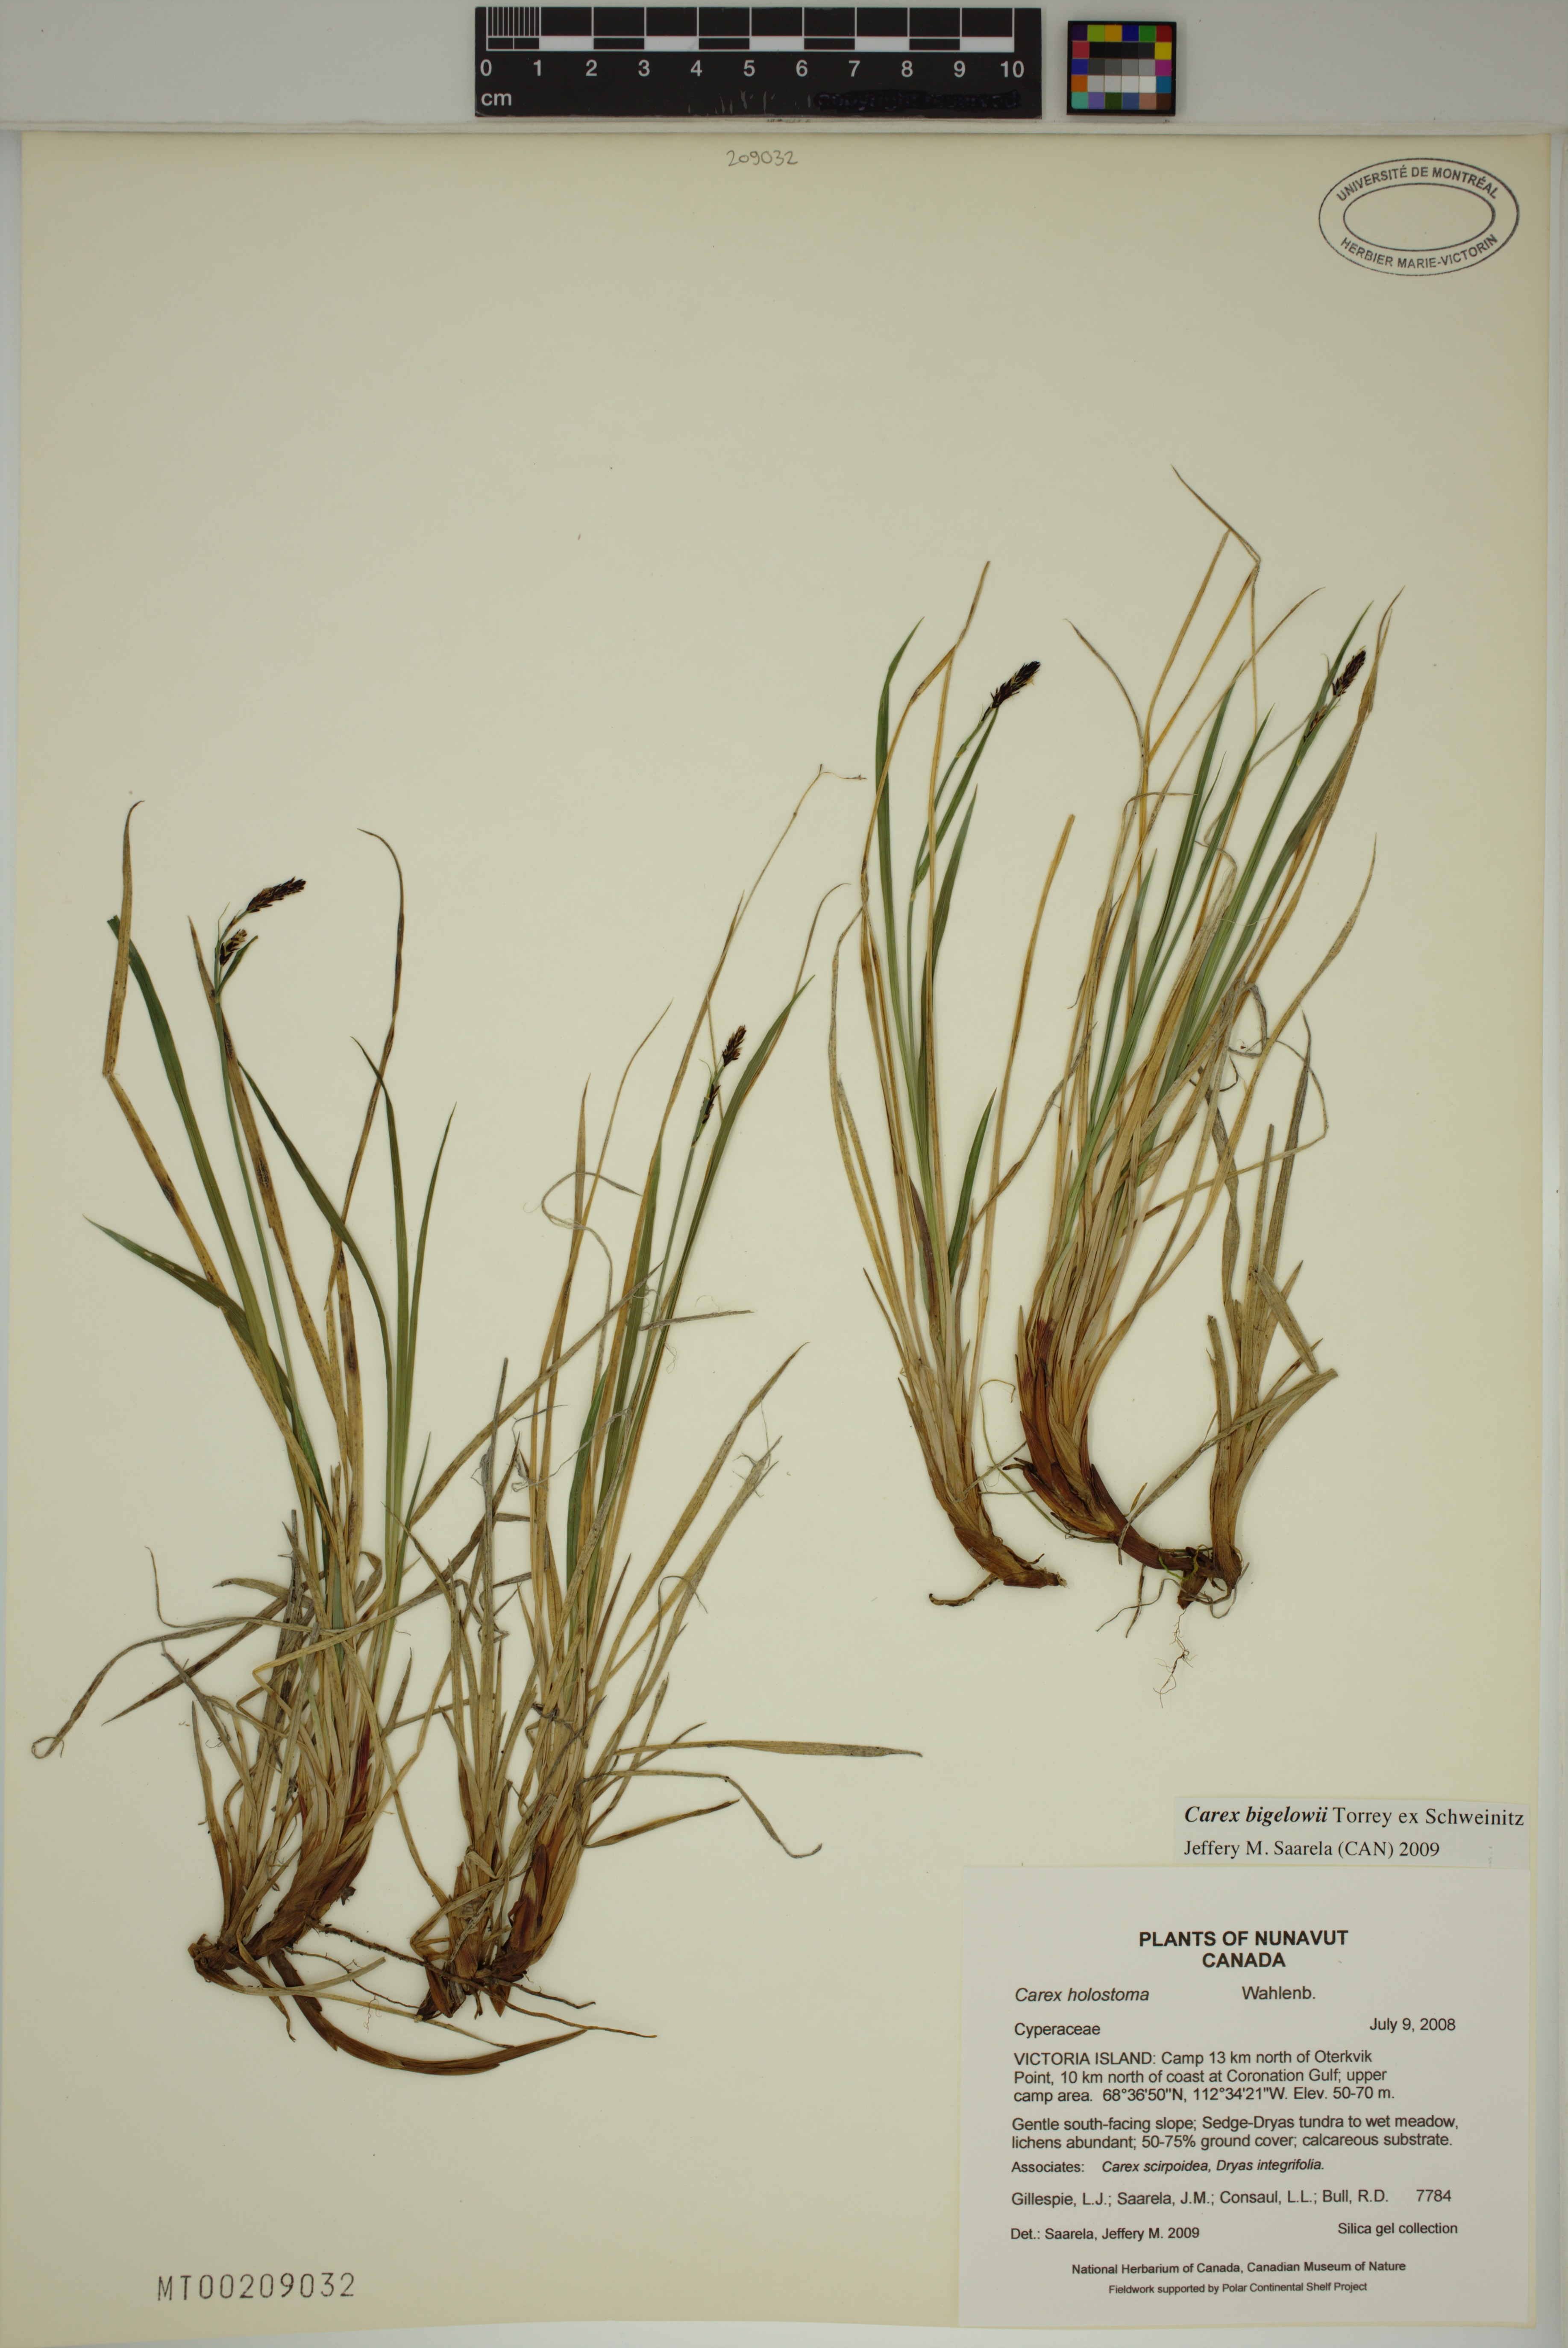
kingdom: Plantae
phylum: Tracheophyta
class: Liliopsida
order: Poales
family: Cyperaceae
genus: Carex
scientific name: Carex bigelowii
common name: Stiff sedge
